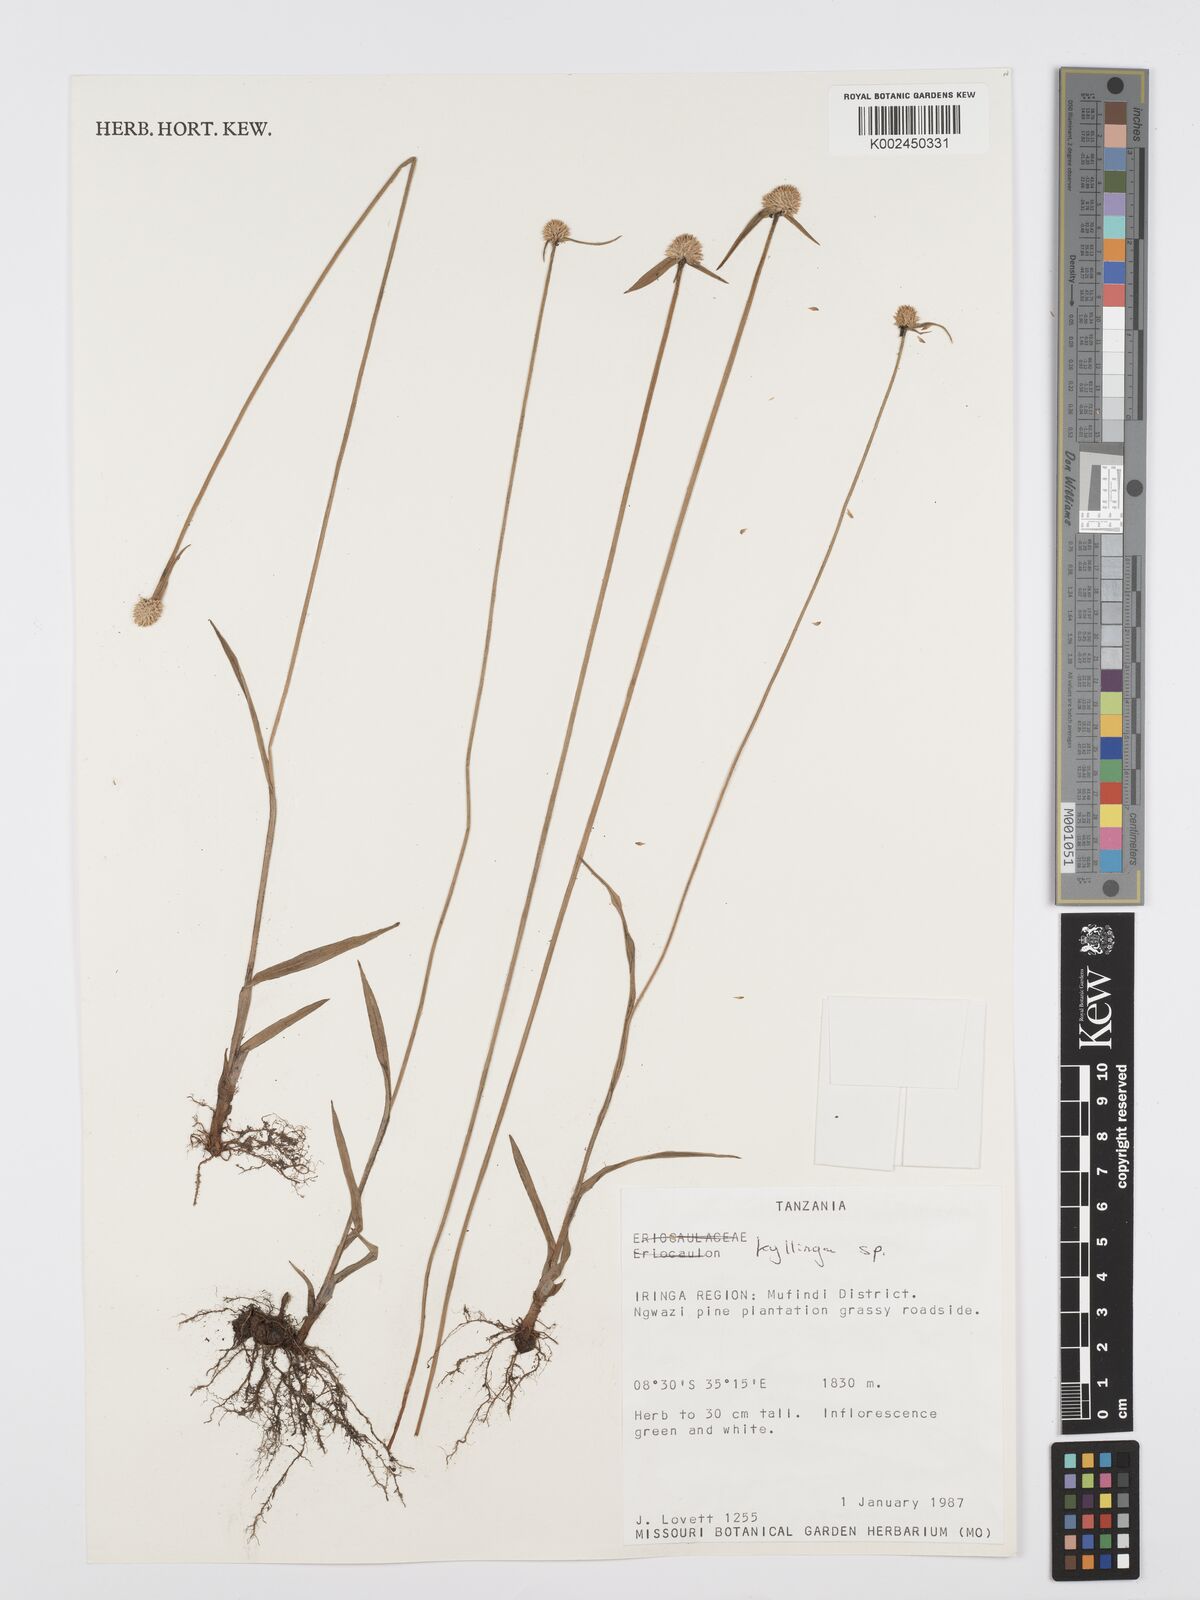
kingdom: Plantae
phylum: Tracheophyta
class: Liliopsida
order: Poales
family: Cyperaceae
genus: Cyperus
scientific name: Cyperus
